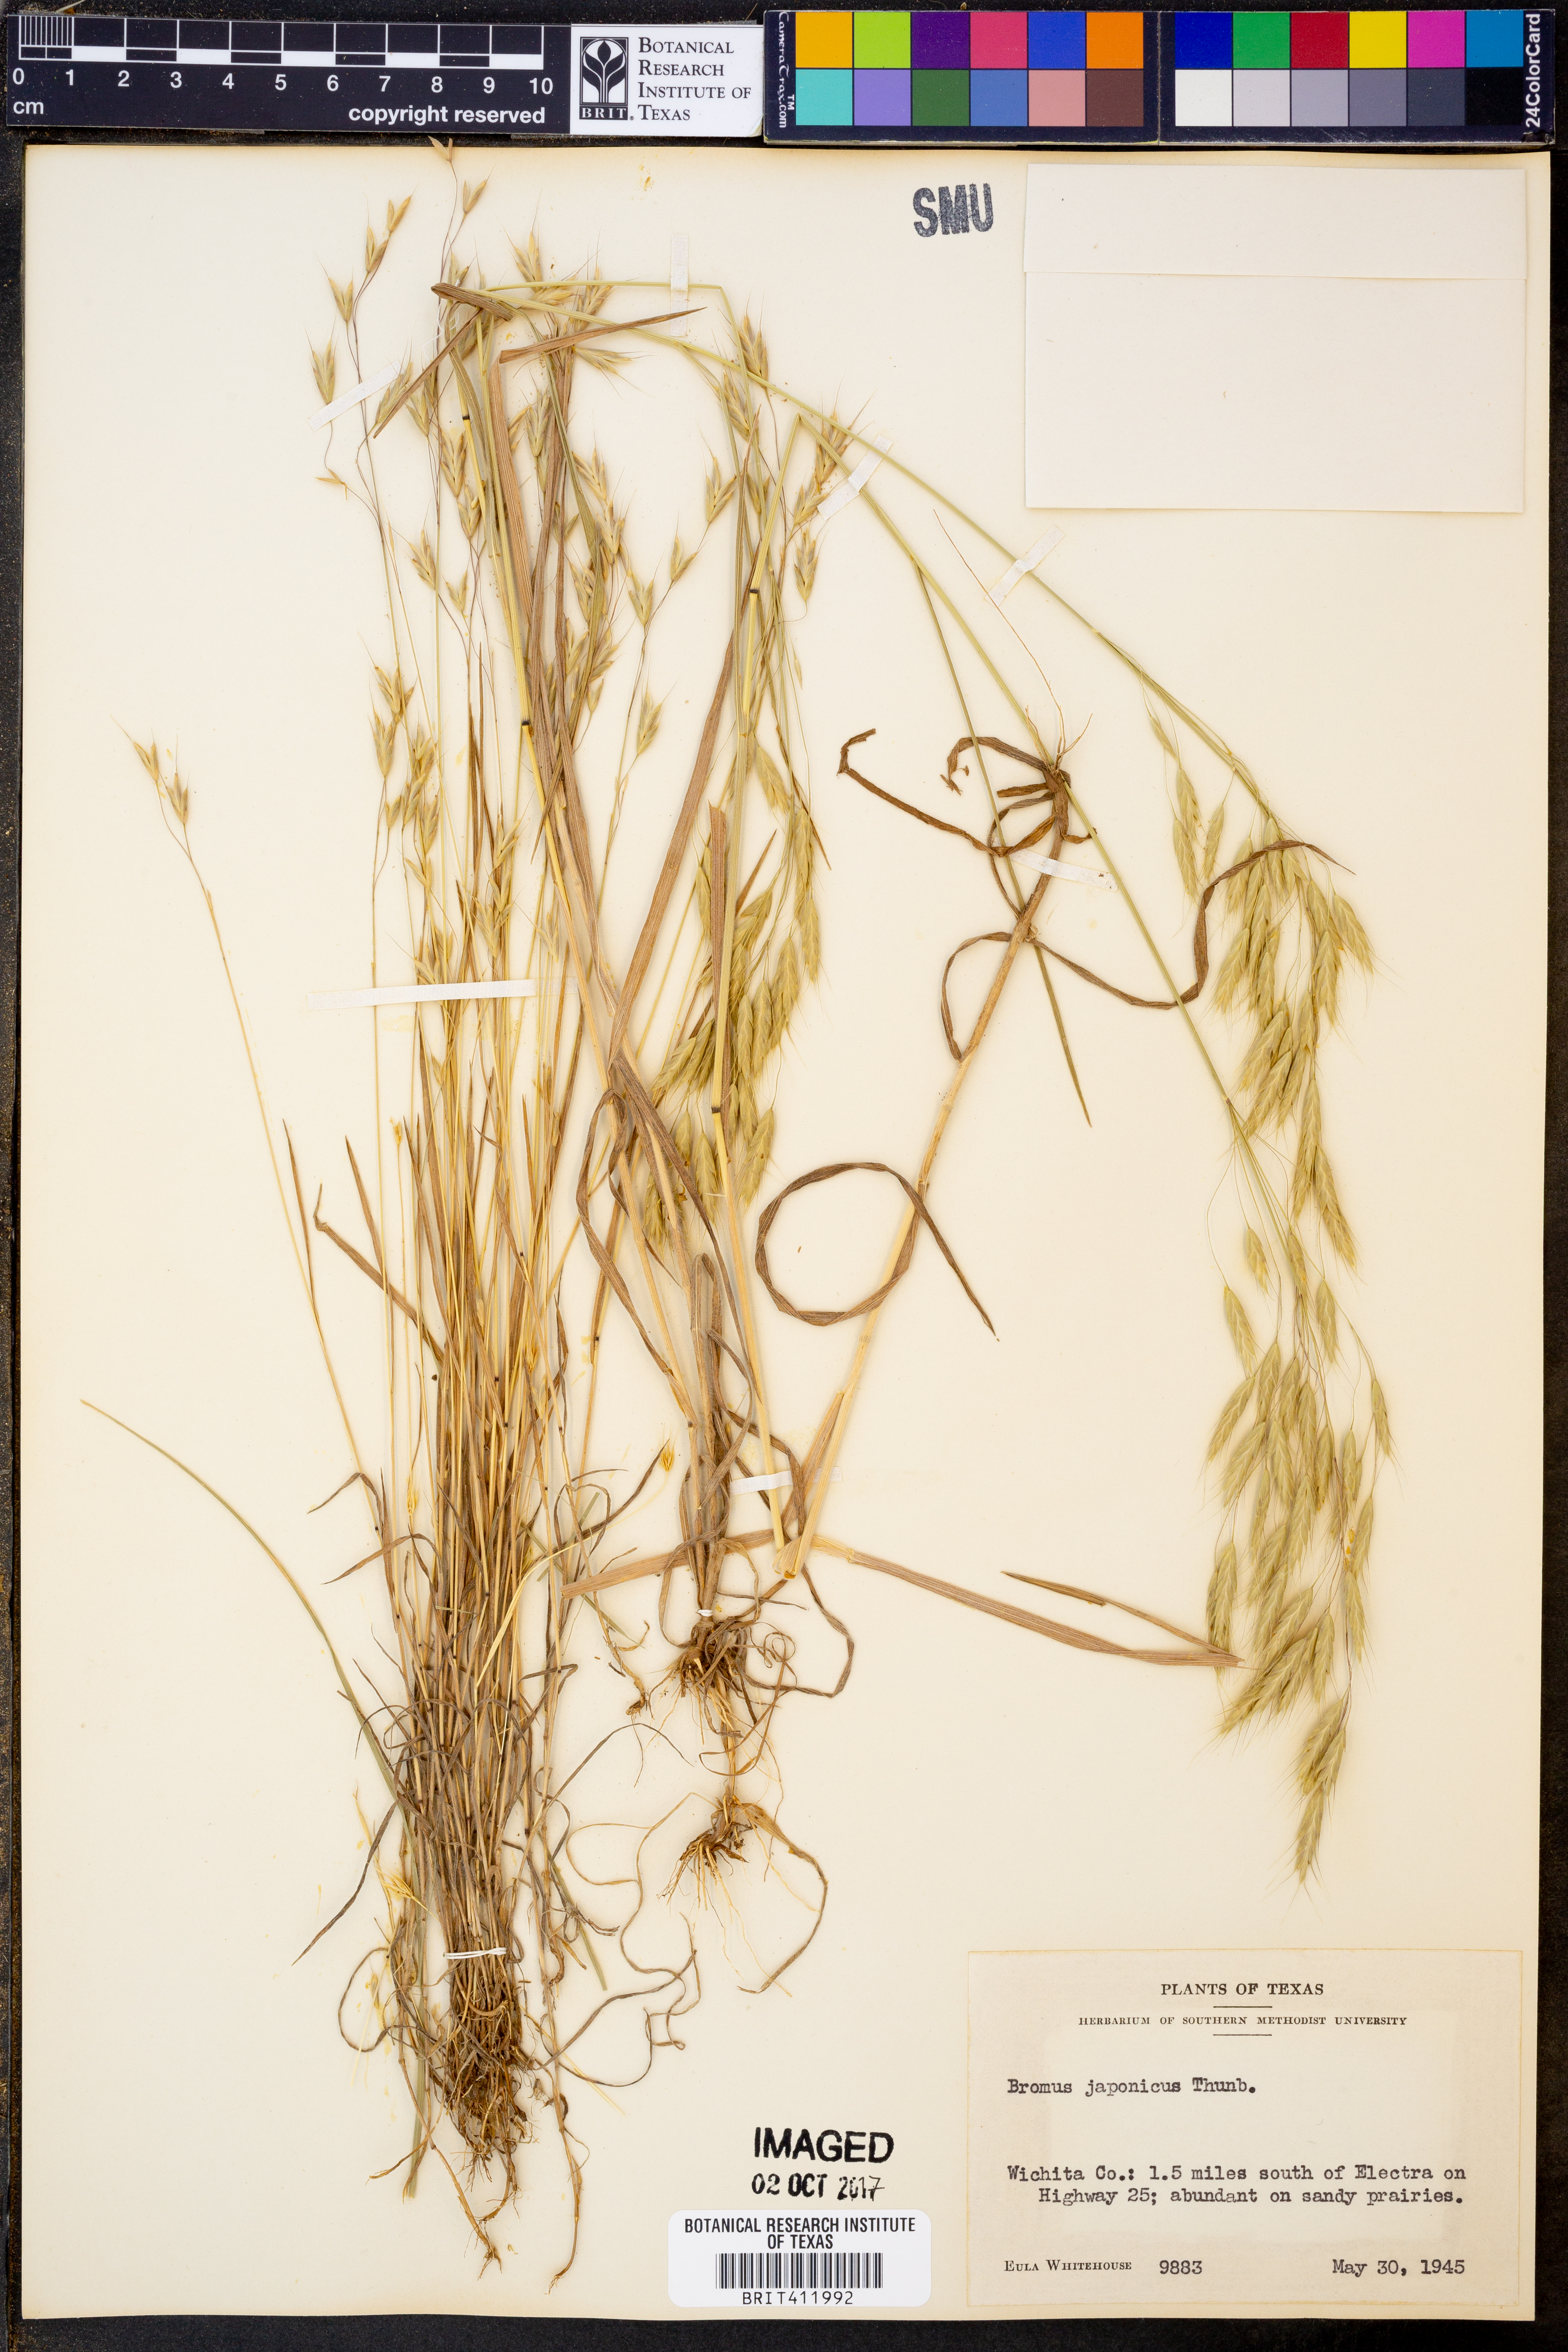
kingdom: Plantae
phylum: Tracheophyta
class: Liliopsida
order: Poales
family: Poaceae
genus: Bromus
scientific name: Bromus japonicus
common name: Japanese brome
